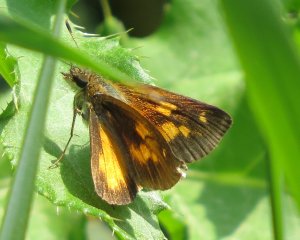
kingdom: Animalia
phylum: Arthropoda
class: Insecta
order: Lepidoptera
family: Hesperiidae
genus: Poanes
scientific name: Poanes viator
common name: Broad-winged Skipper
